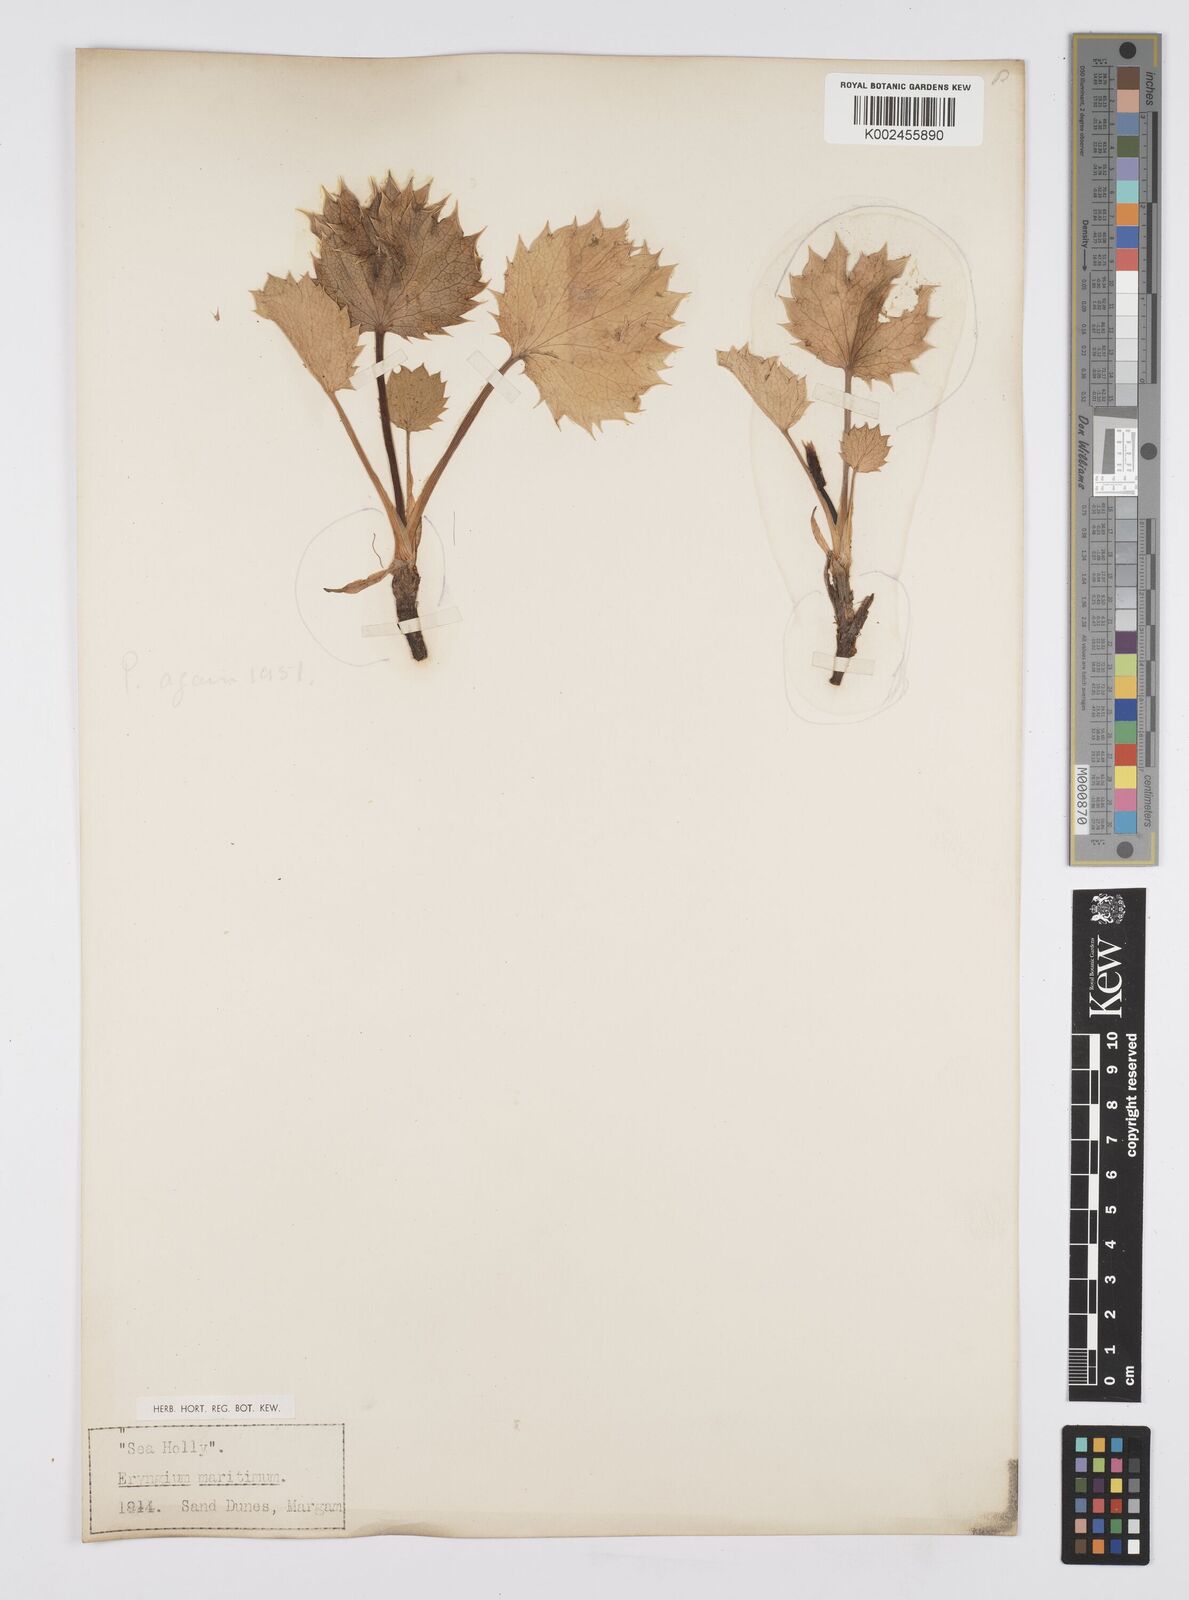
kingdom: Plantae
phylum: Tracheophyta
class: Magnoliopsida
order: Apiales
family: Apiaceae
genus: Eryngium
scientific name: Eryngium maritimum
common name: Sea-holly
